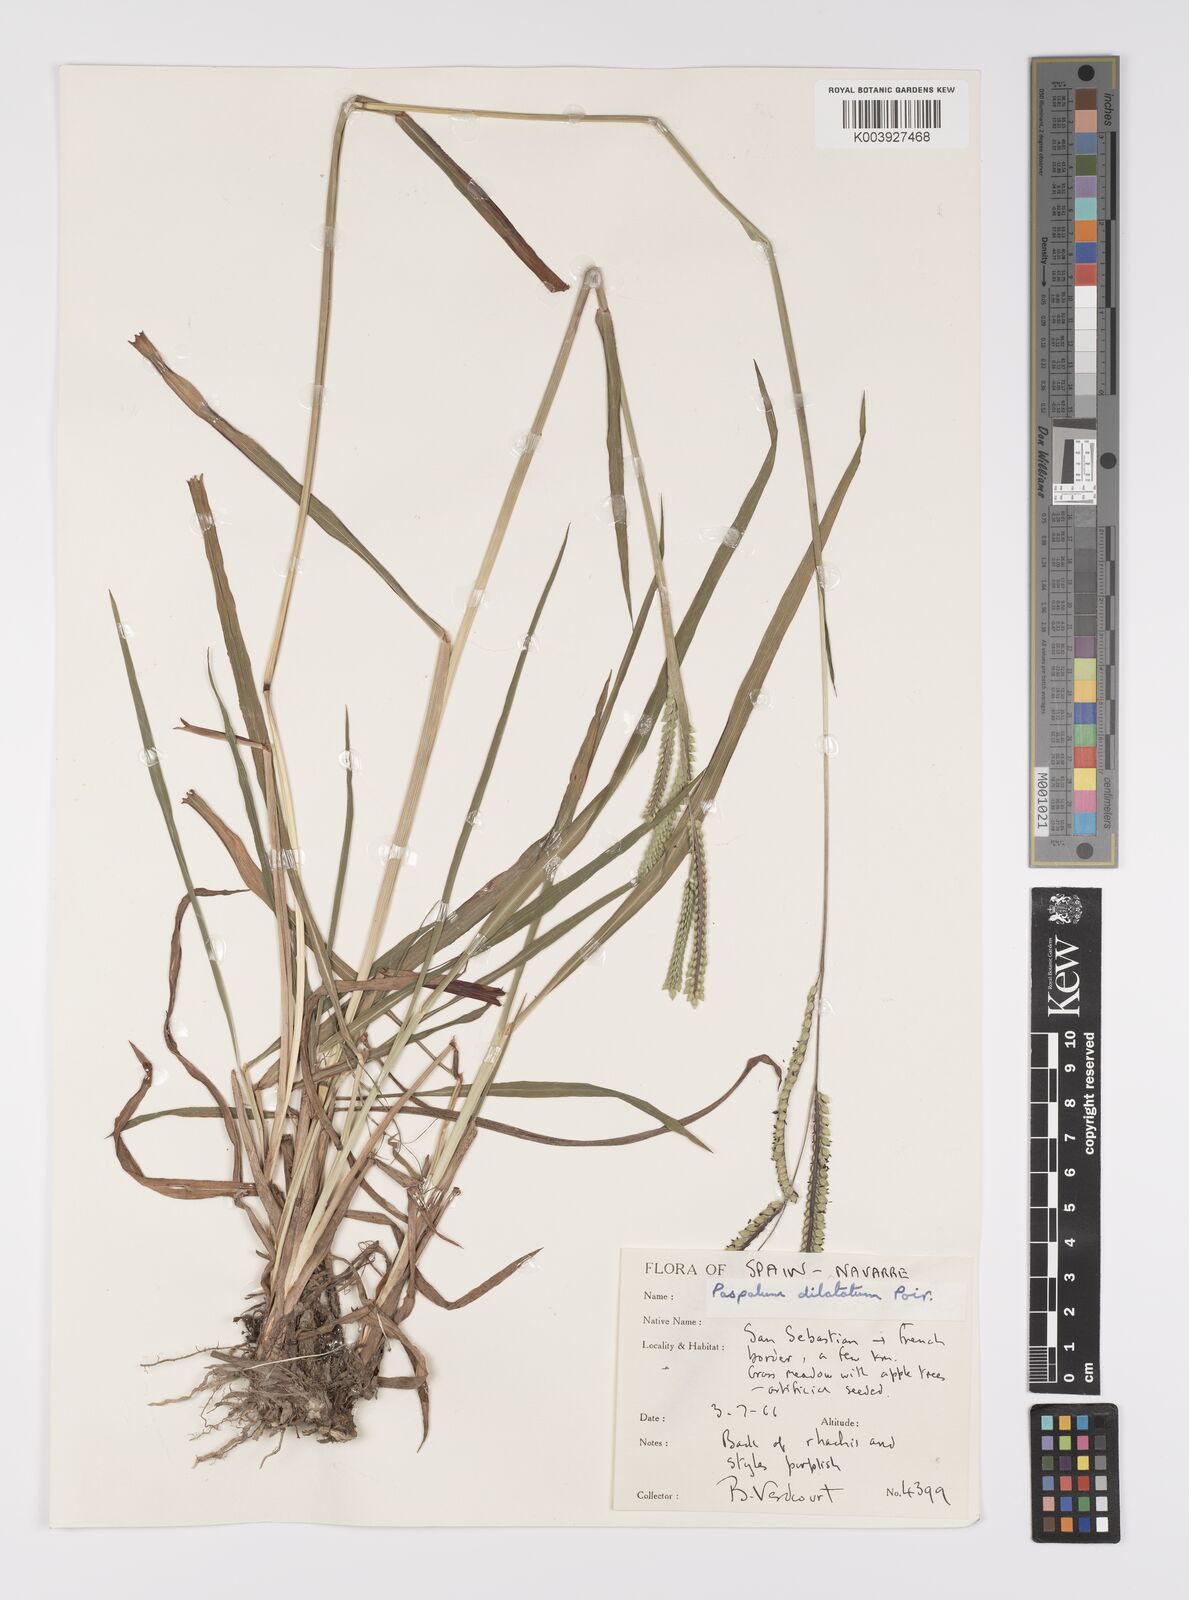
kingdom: Plantae
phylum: Tracheophyta
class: Liliopsida
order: Poales
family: Poaceae
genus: Paspalum
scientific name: Paspalum dilatatum
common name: Dallisgrass
